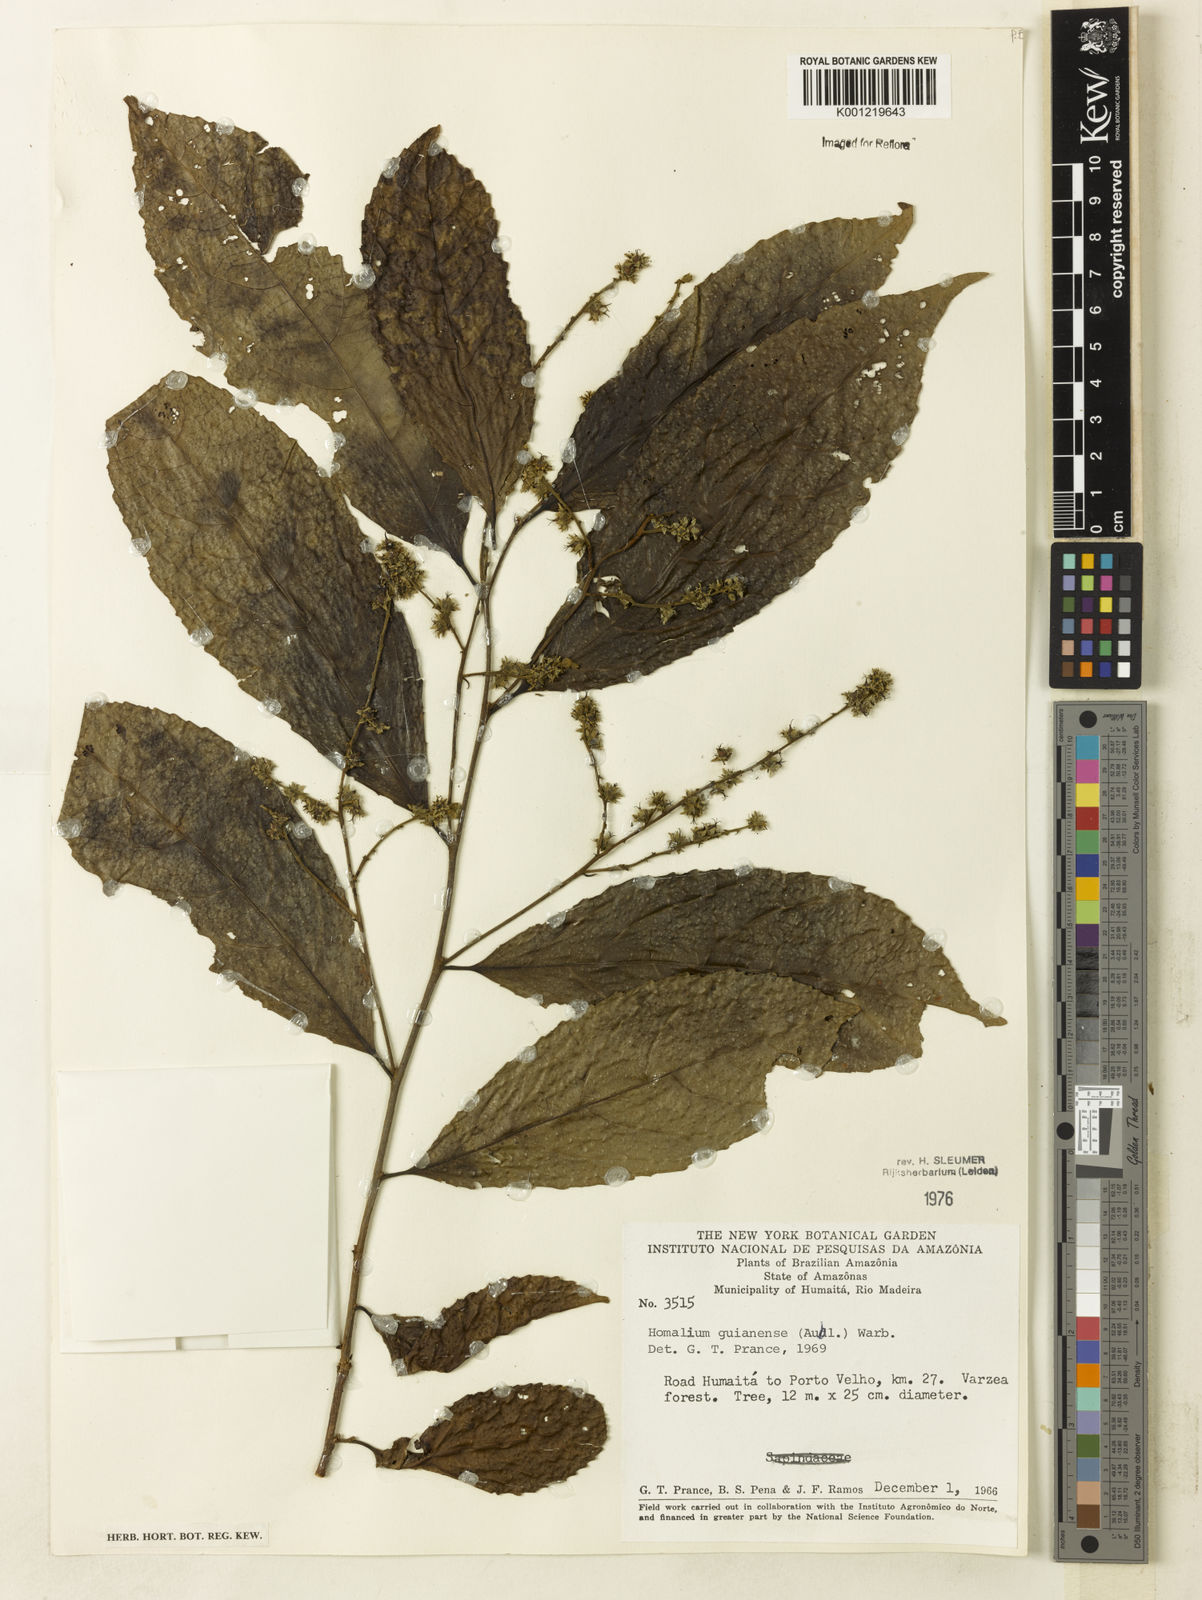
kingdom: Plantae
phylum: Tracheophyta
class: Magnoliopsida
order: Malpighiales
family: Salicaceae
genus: Homalium
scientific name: Homalium guianense
